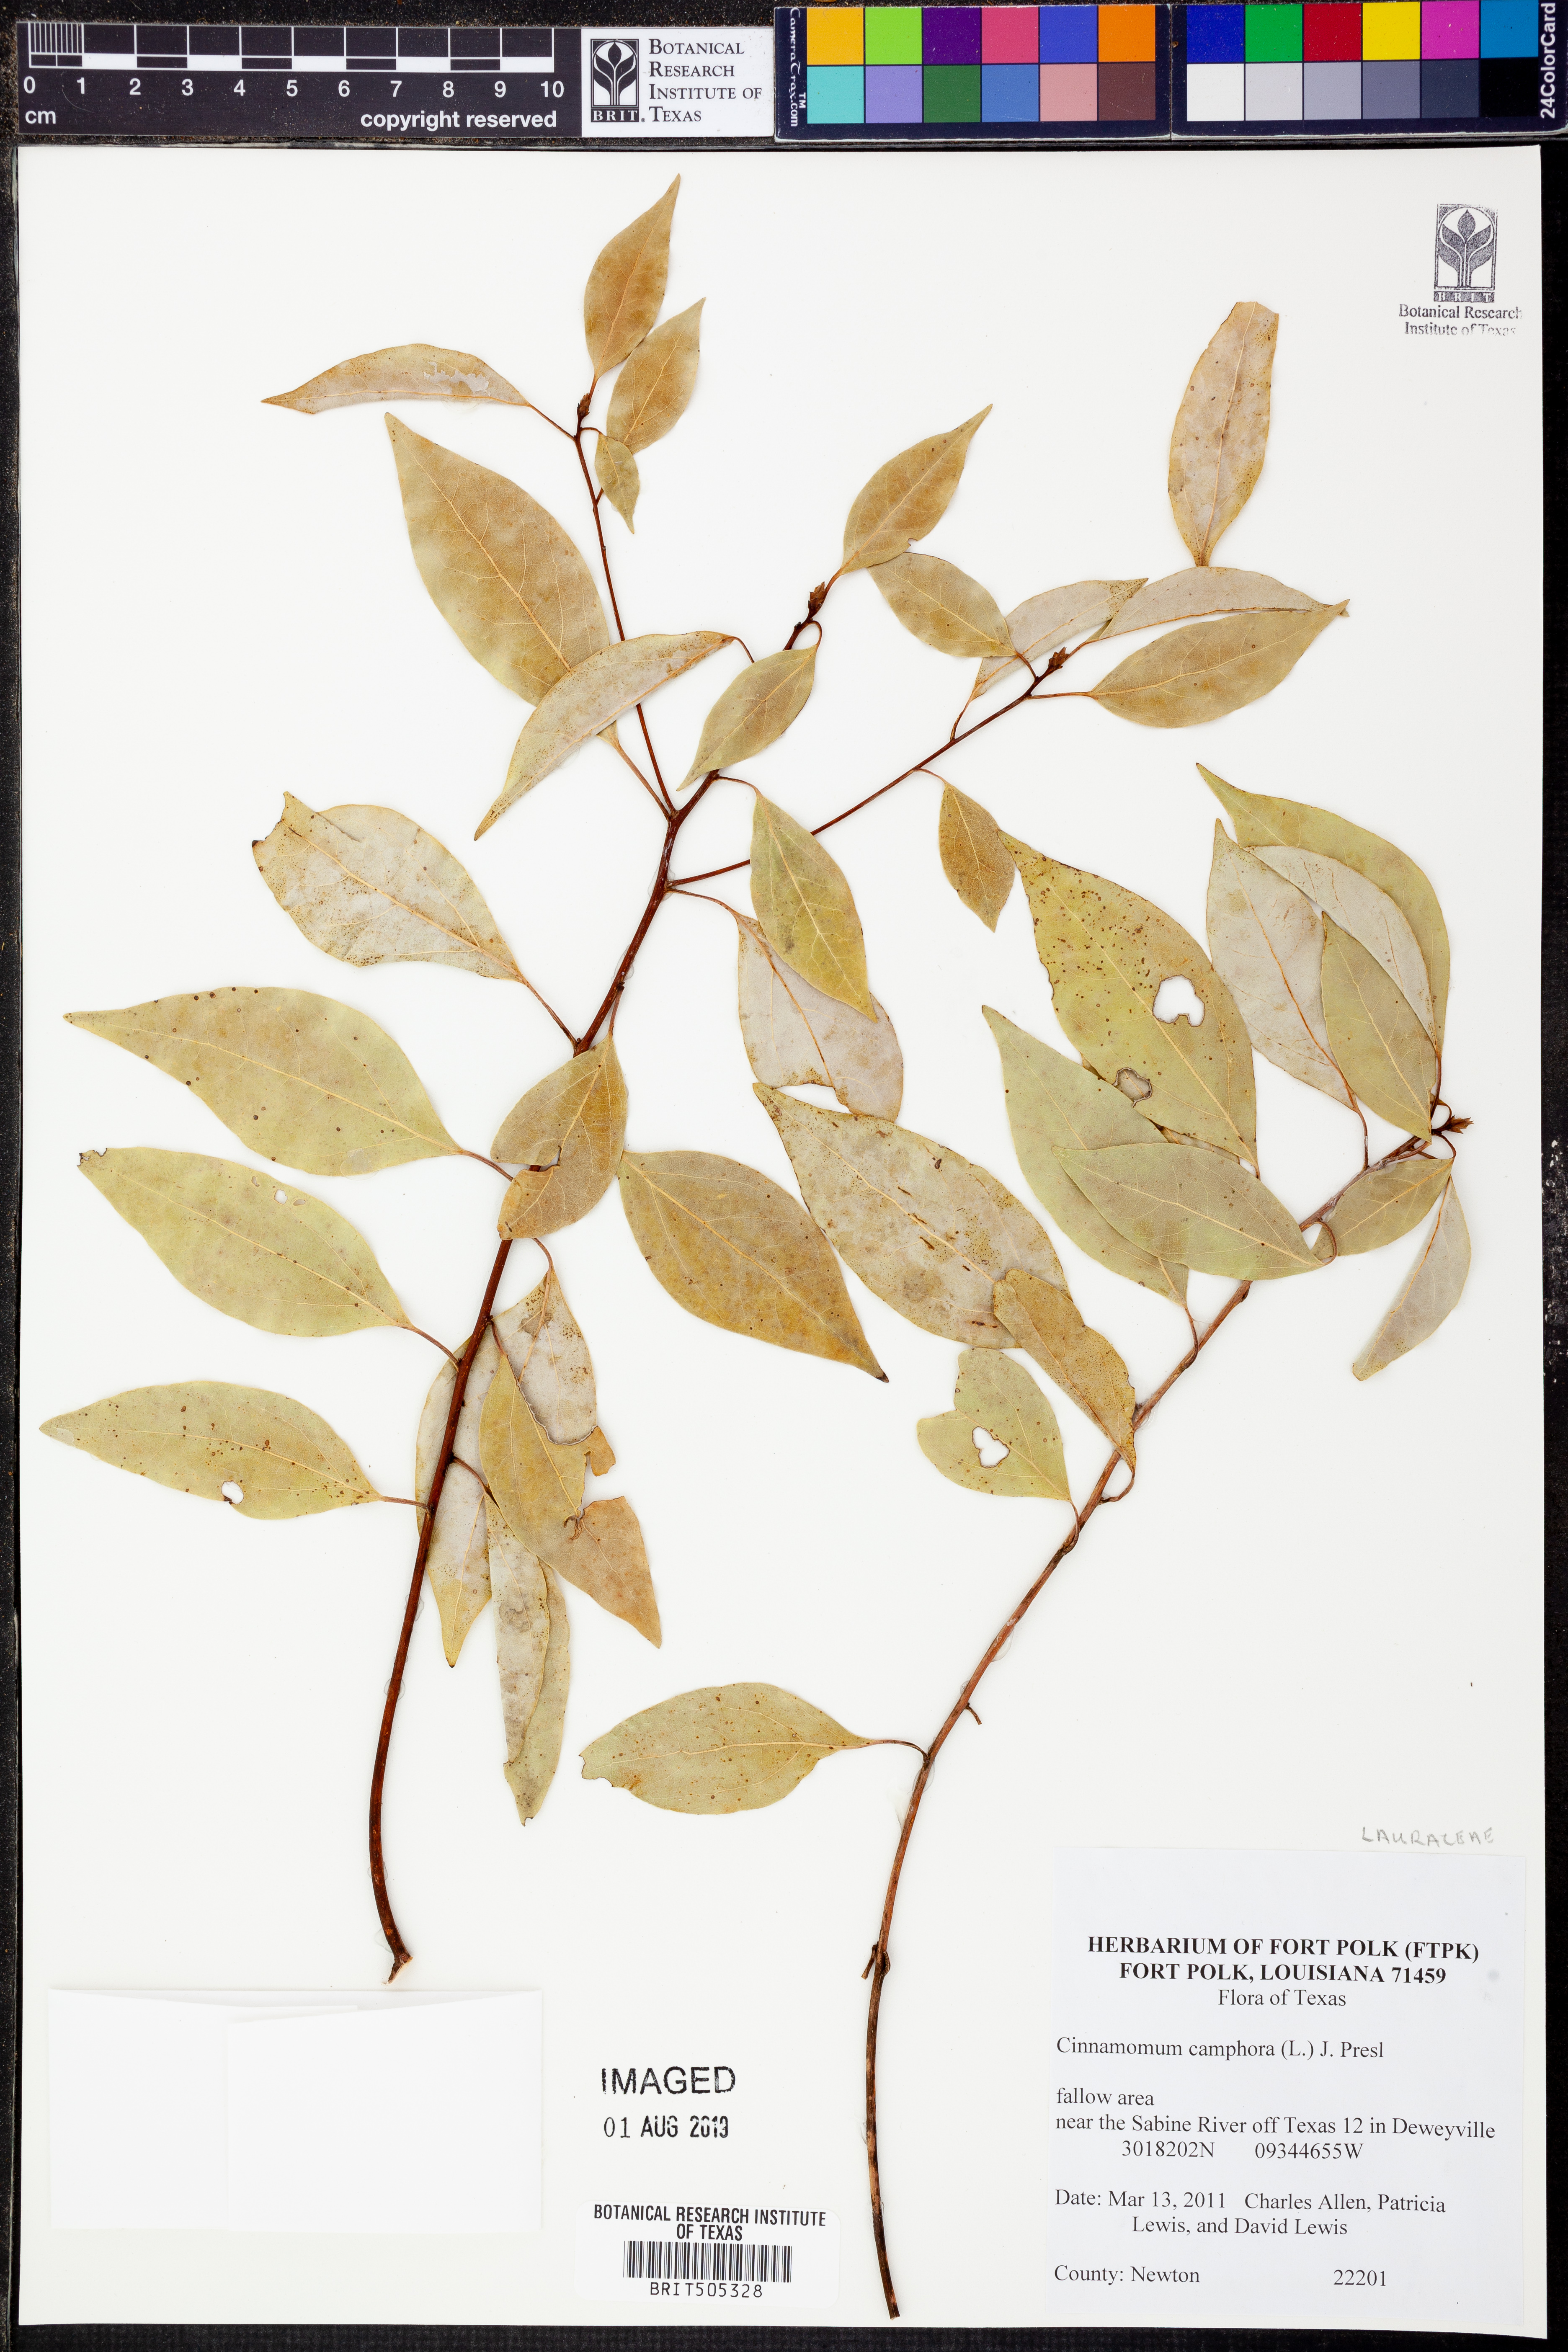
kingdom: Plantae
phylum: Tracheophyta
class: Magnoliopsida
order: Laurales
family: Lauraceae
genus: Cinnamomum
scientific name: Cinnamomum camphora
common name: Camphortree
